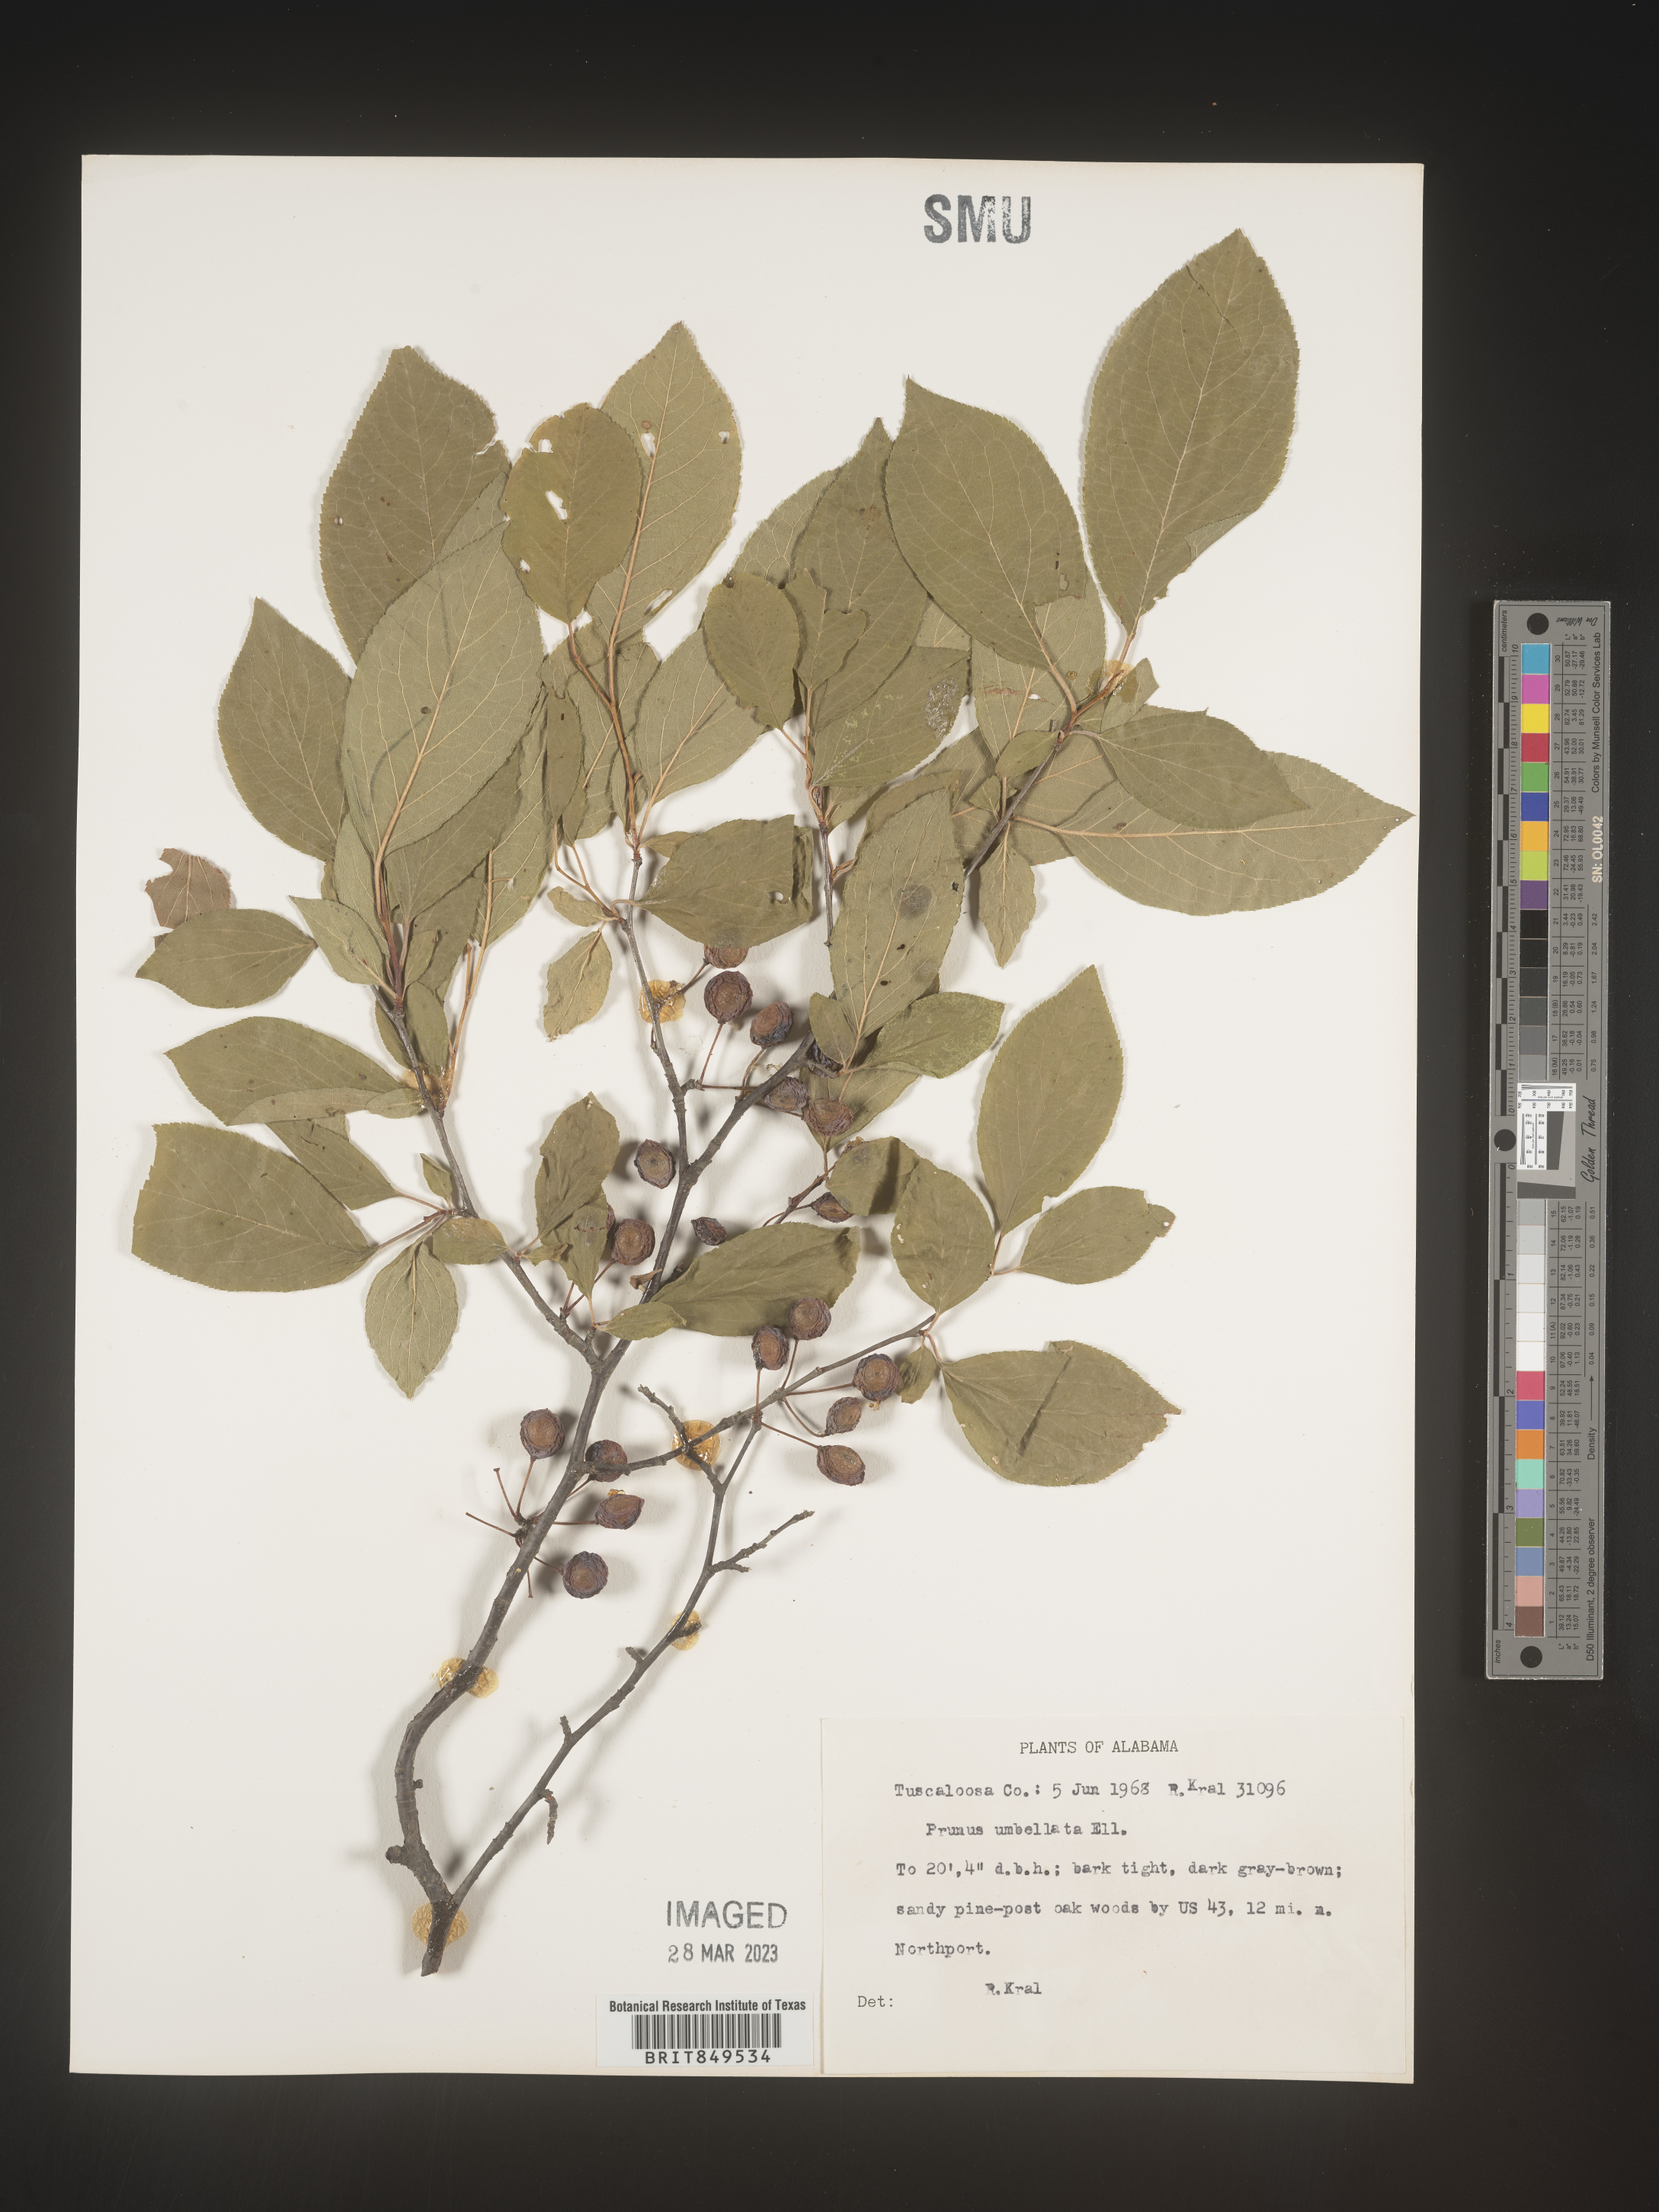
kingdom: Plantae
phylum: Tracheophyta
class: Magnoliopsida
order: Rosales
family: Rosaceae
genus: Prunus
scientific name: Prunus umbellata
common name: Allegheny plum
